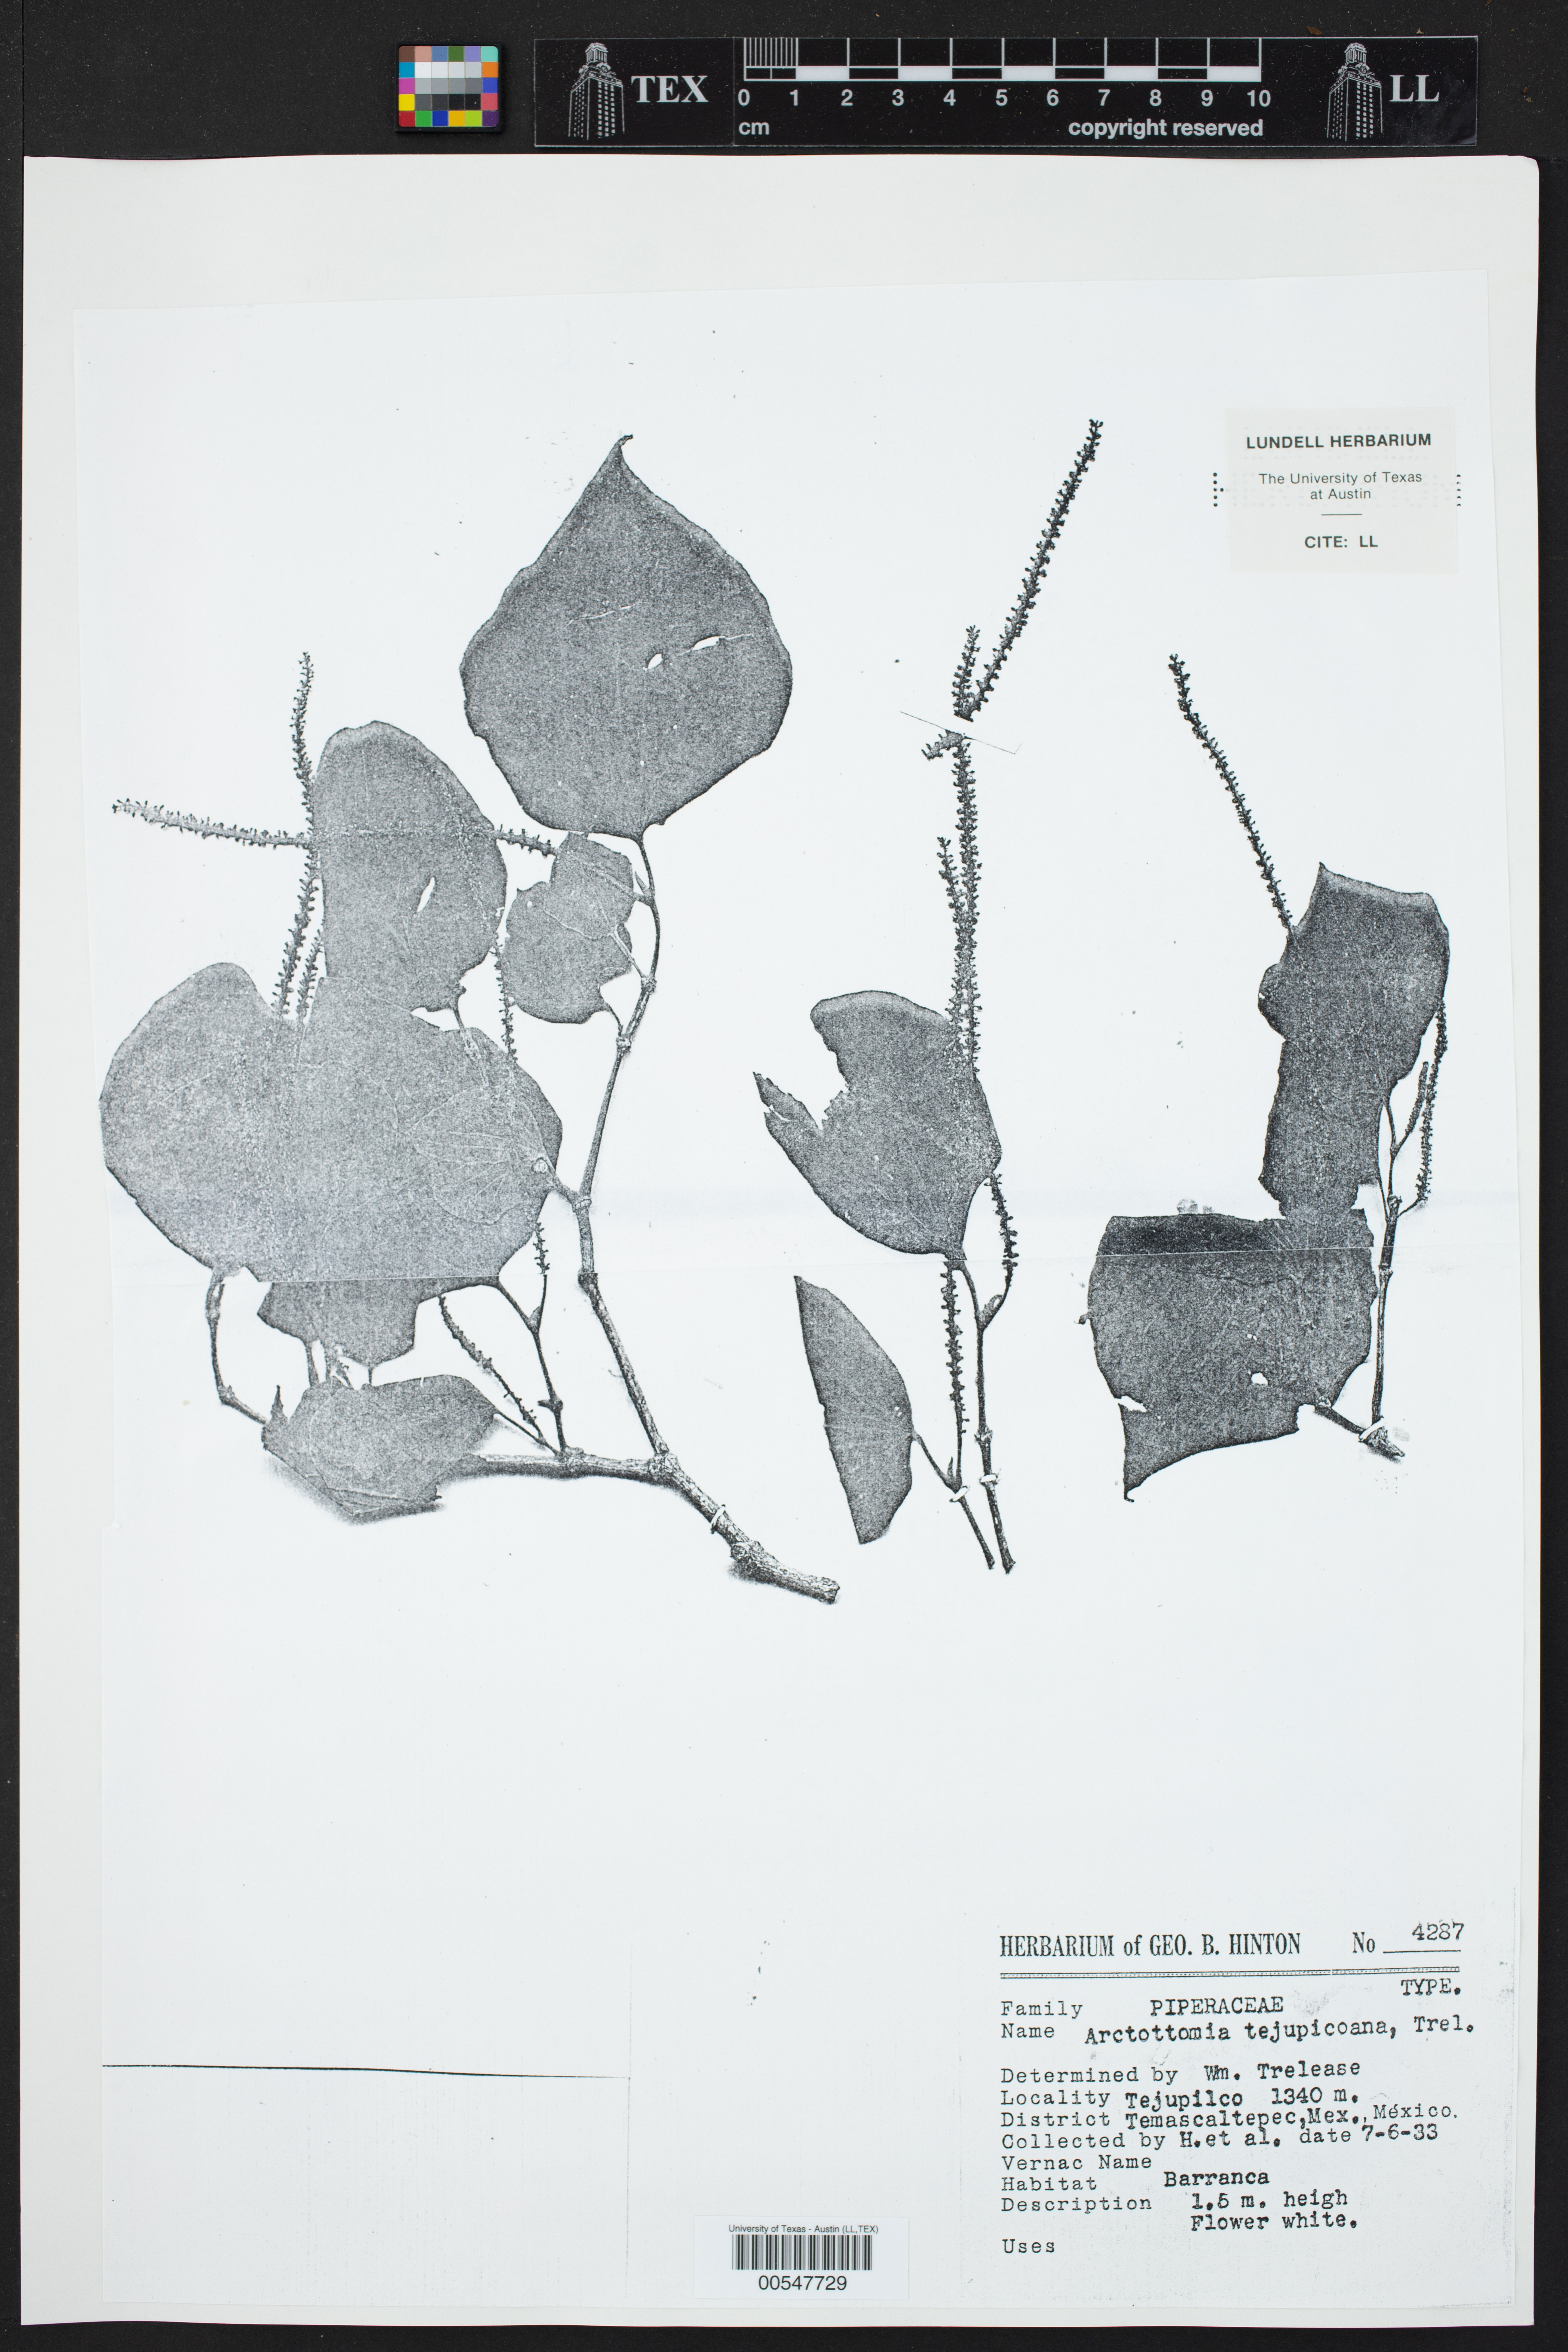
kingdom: Plantae
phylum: Tracheophyta
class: Magnoliopsida
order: Piperales
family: Piperaceae
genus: Piper
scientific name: Piper
